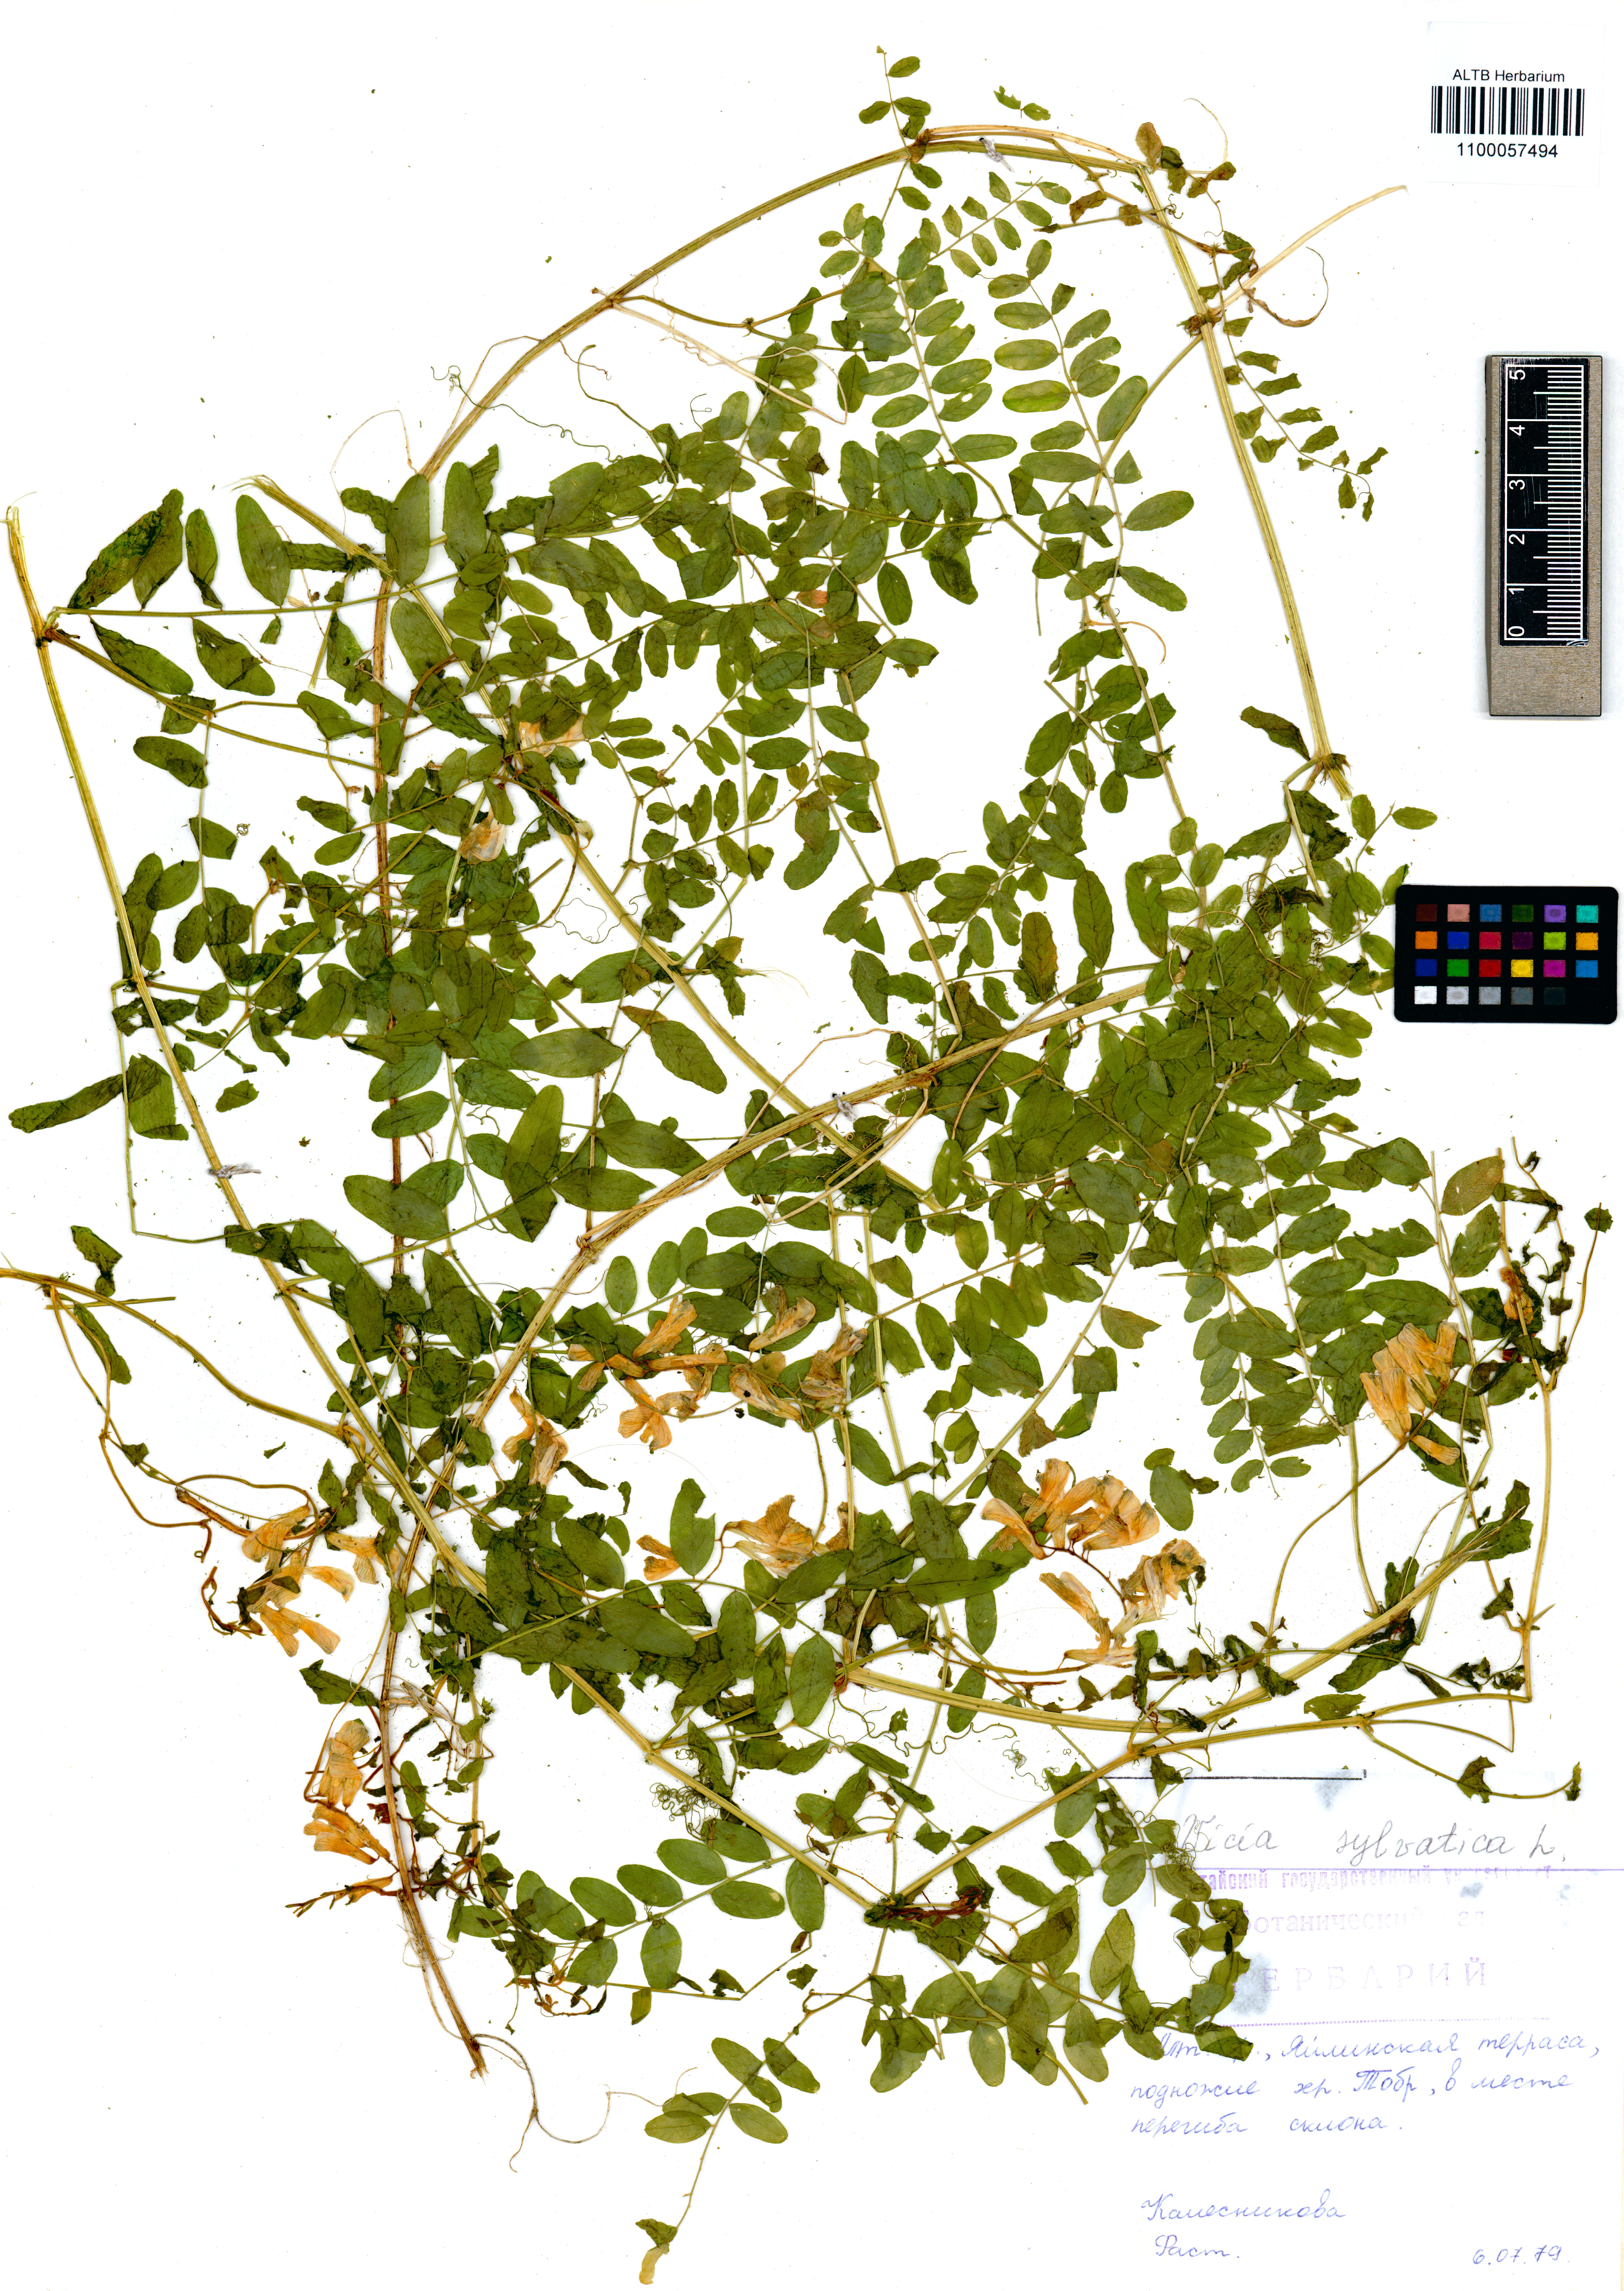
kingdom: Plantae
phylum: Tracheophyta
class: Magnoliopsida
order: Fabales
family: Fabaceae
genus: Vicia
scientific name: Vicia sylvatica
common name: Wood vetch
